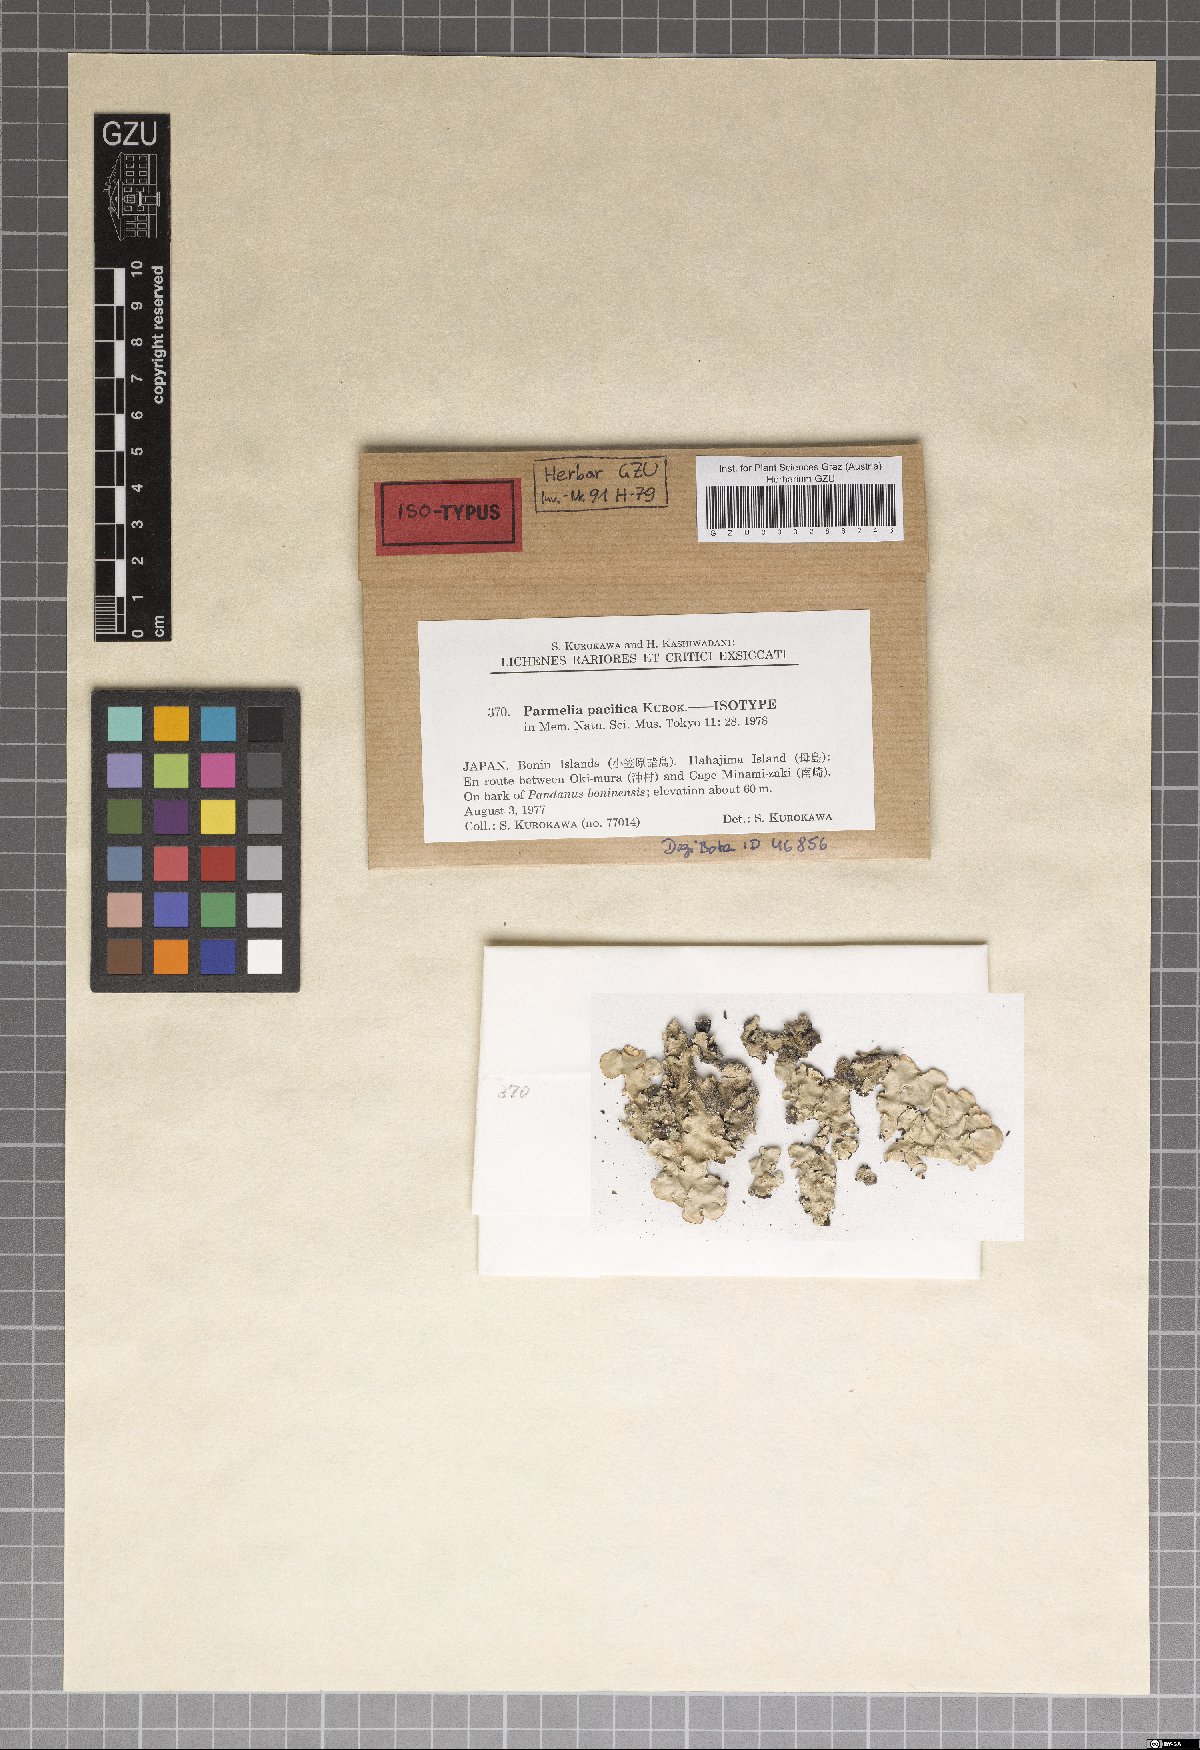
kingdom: Fungi
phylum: Ascomycota
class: Lecanoromycetes
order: Lecanorales
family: Parmeliaceae
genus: Parmelinella
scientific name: Parmelinella
